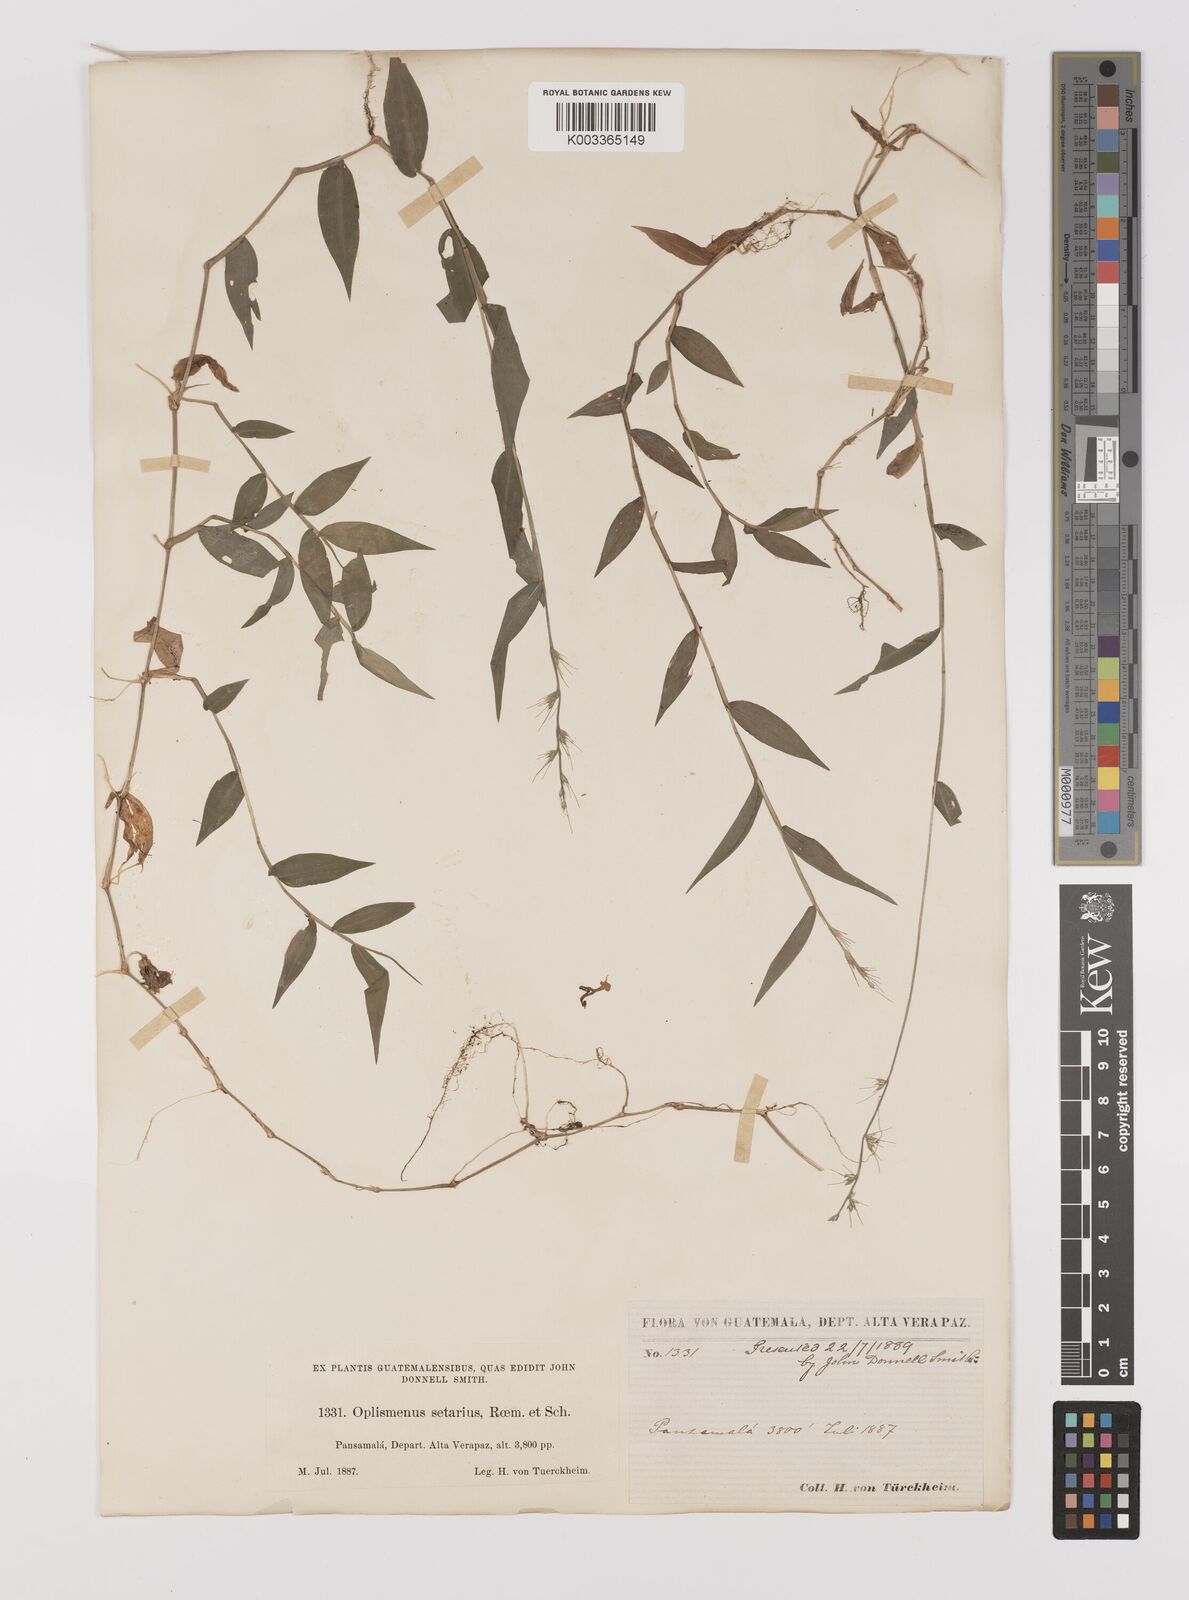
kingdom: Plantae
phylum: Tracheophyta
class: Liliopsida
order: Poales
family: Poaceae
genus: Oplismenus
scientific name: Oplismenus hirtellus
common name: Basketgrass
